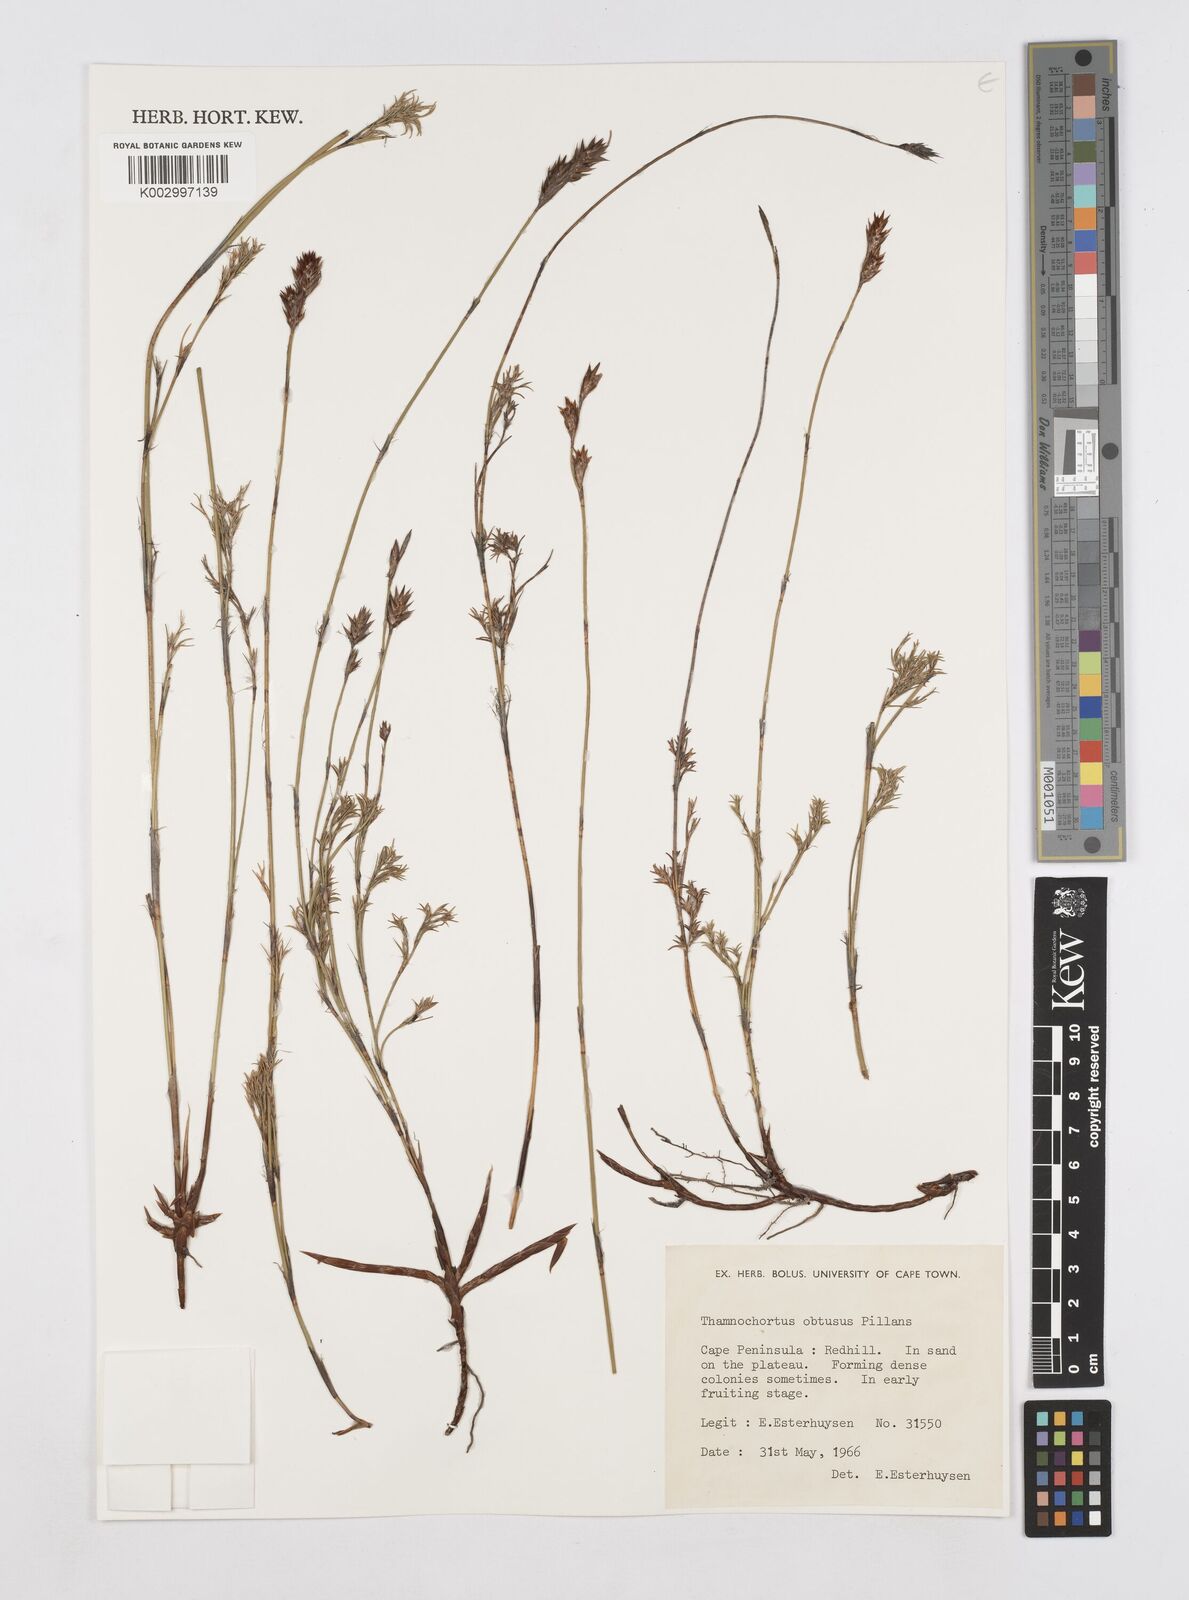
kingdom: Plantae
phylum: Tracheophyta
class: Liliopsida
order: Poales
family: Restionaceae
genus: Thamnochortus
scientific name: Thamnochortus obtusus
